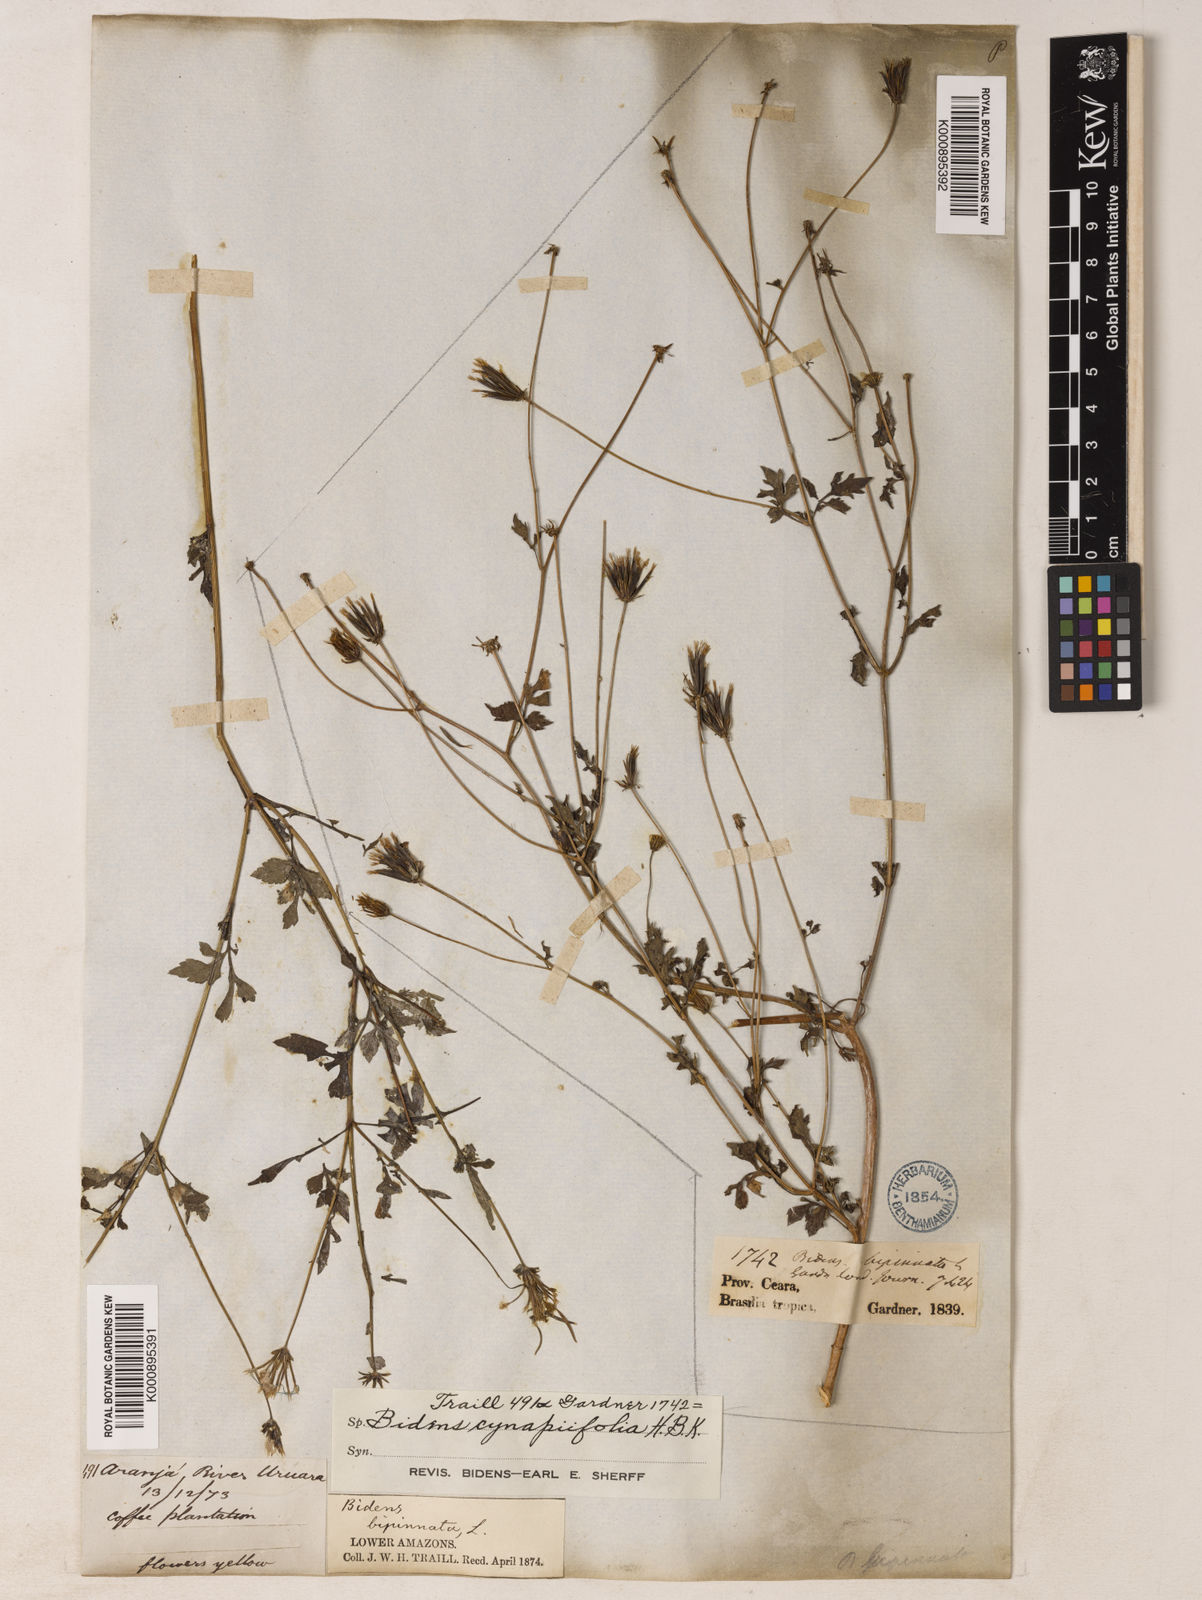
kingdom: Plantae
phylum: Tracheophyta
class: Magnoliopsida
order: Asterales
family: Asteraceae
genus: Bidens
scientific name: Bidens cynapiifolia
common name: Beggar's tick
